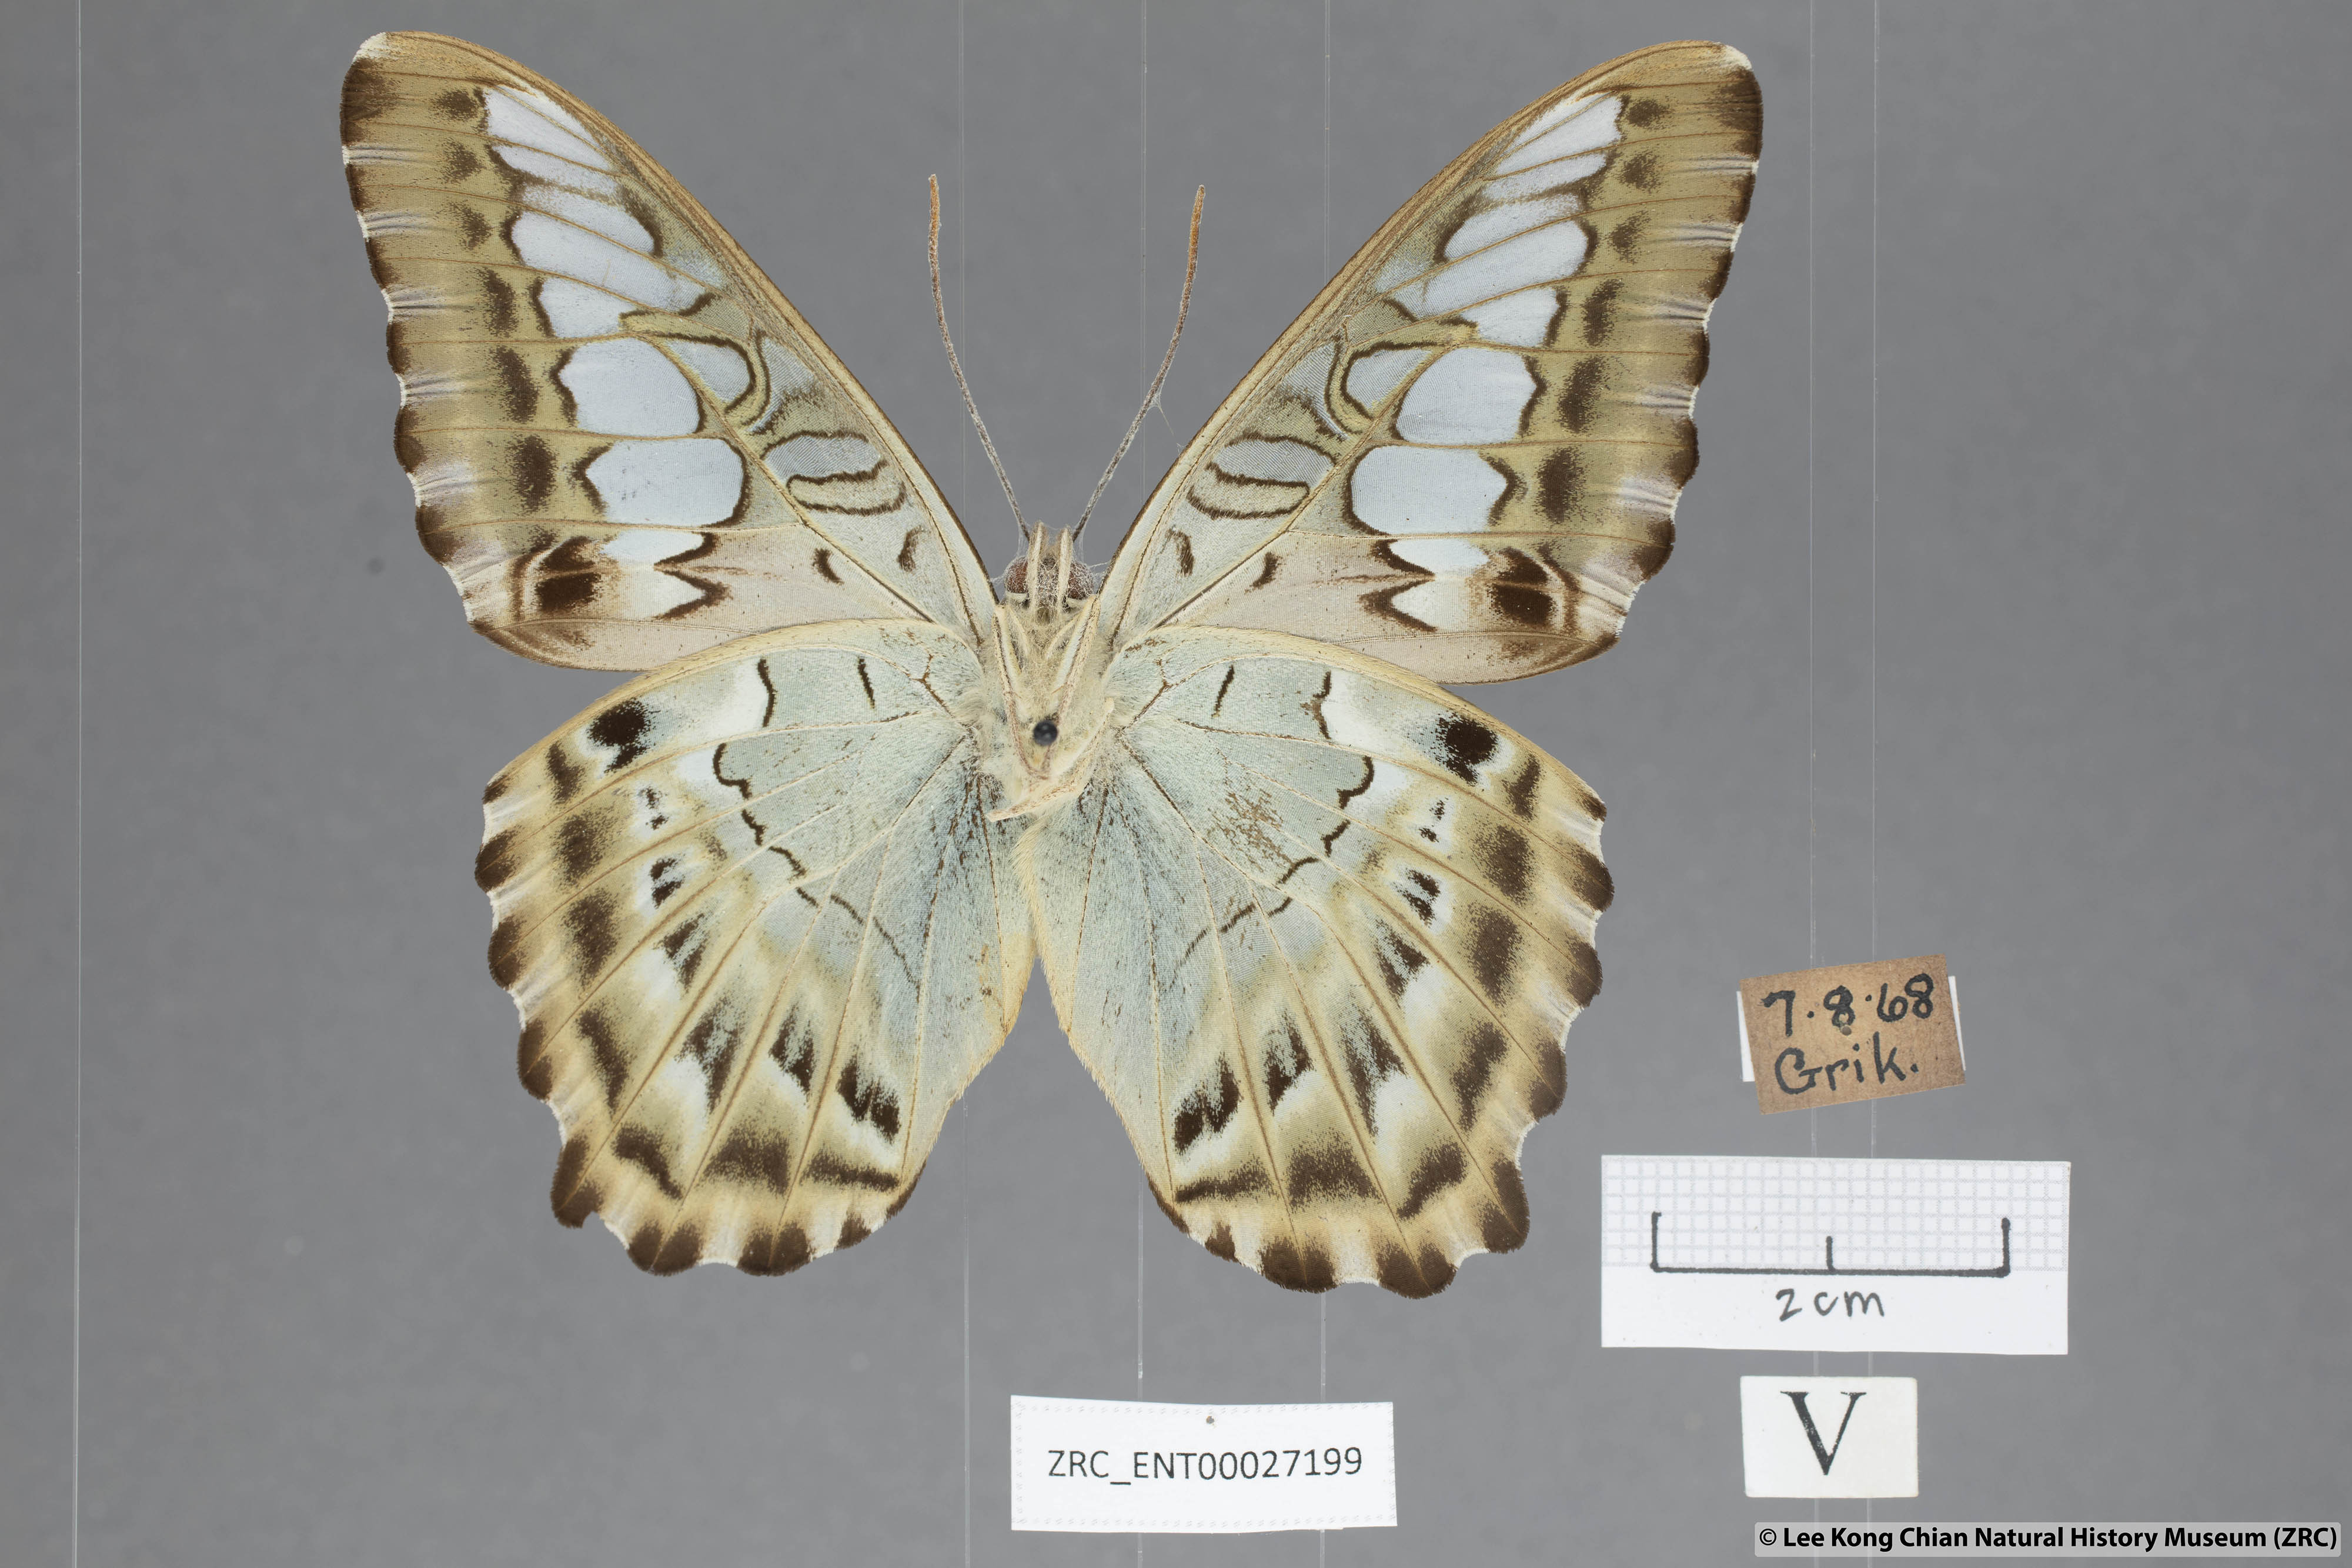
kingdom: Animalia
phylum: Arthropoda
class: Insecta
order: Lepidoptera
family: Nymphalidae
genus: Kallima
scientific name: Kallima sylvia
